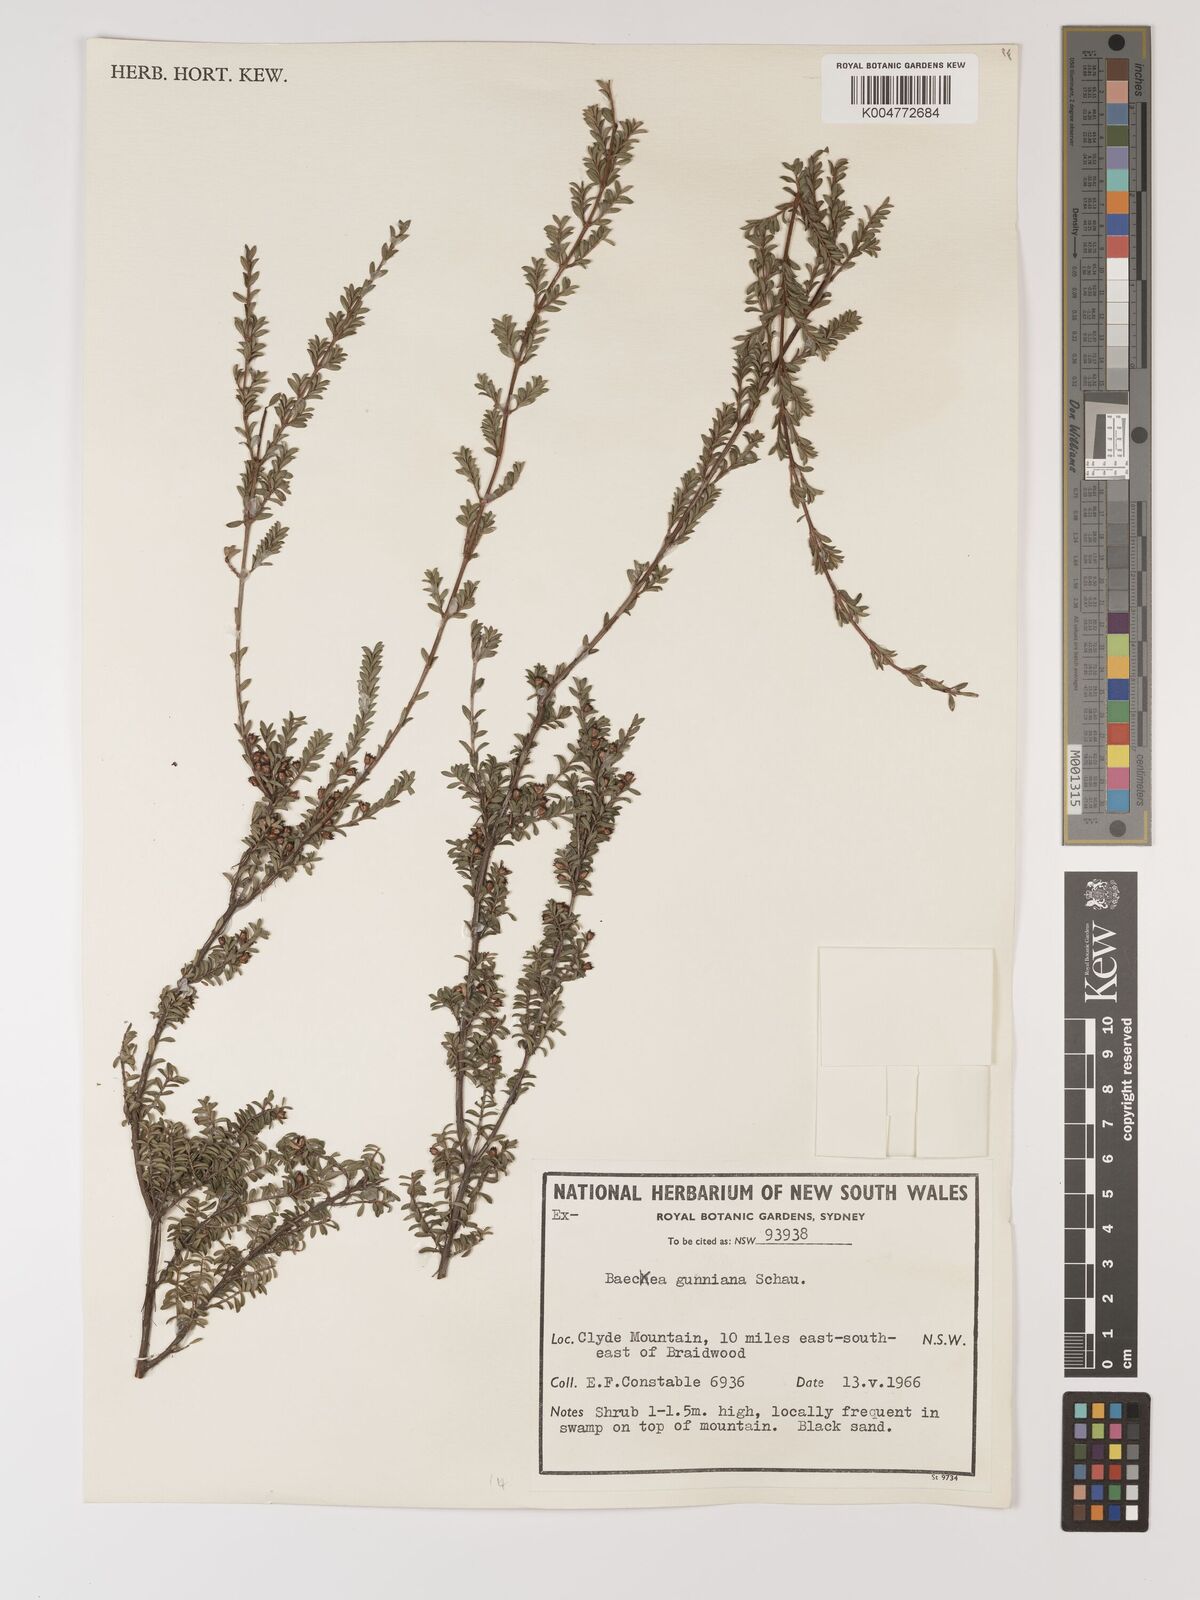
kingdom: Plantae
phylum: Tracheophyta
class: Magnoliopsida
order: Myrtales
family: Myrtaceae
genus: Baeckea
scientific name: Baeckea gunniana
